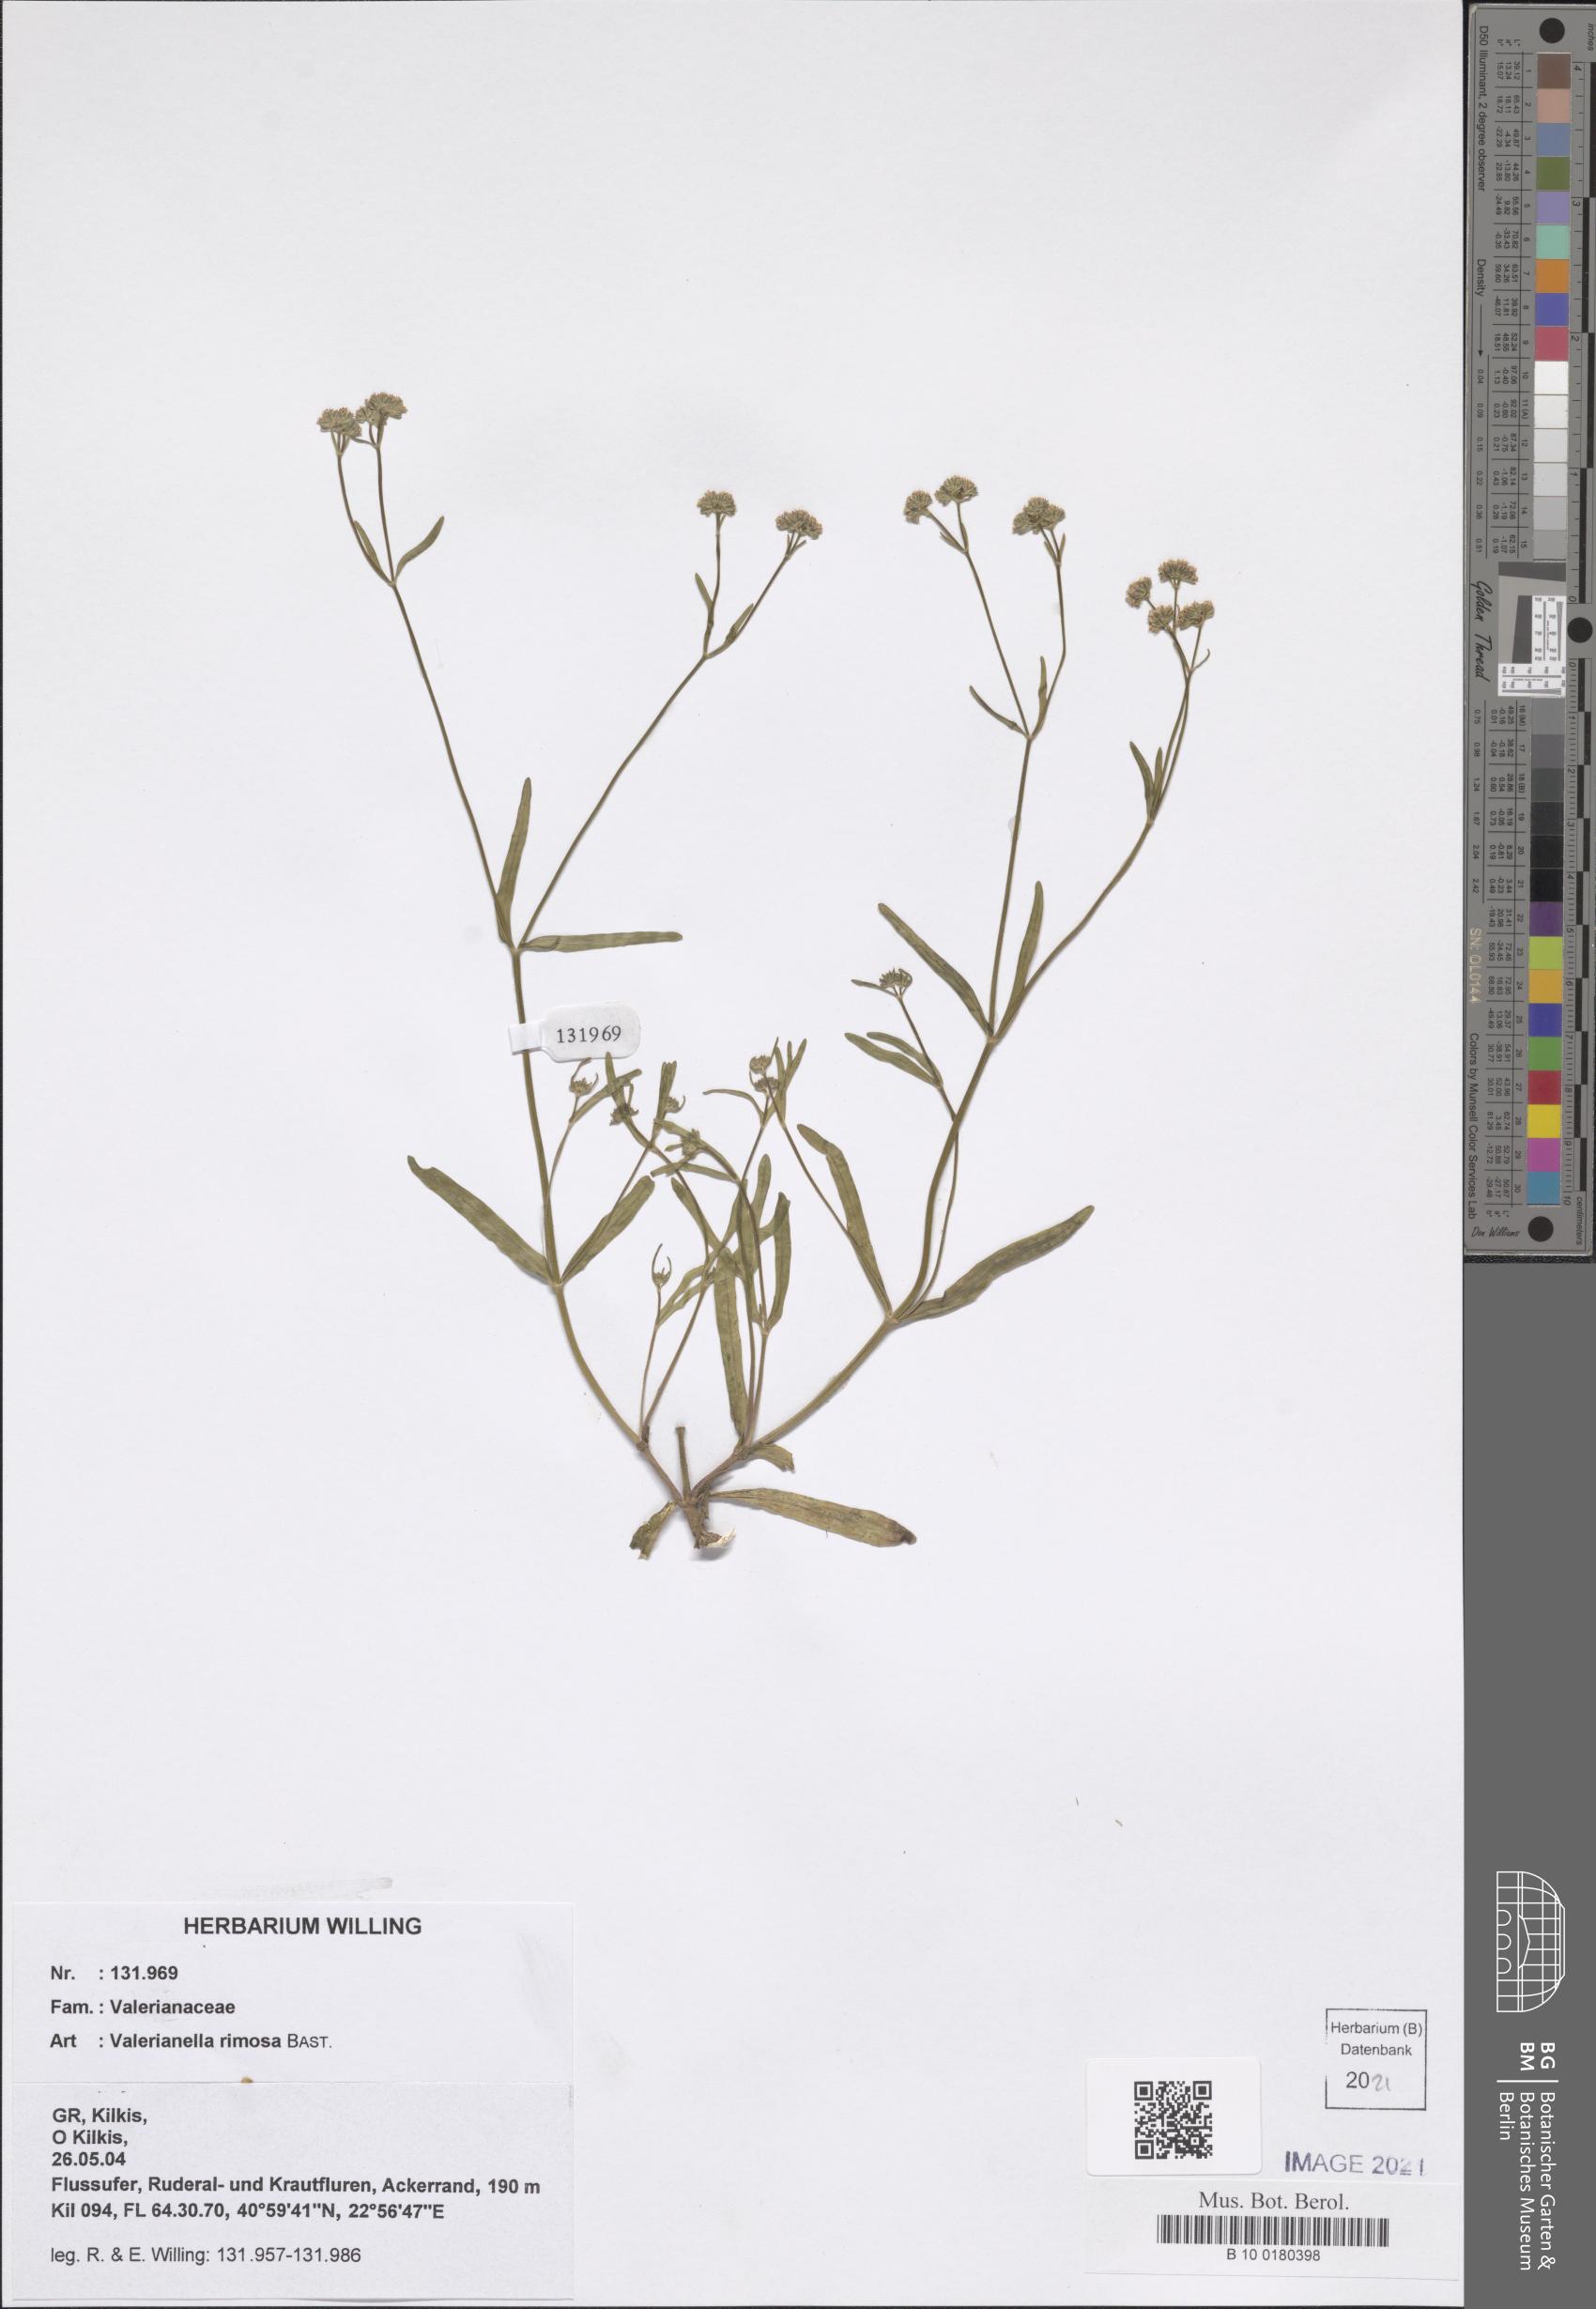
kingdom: Plantae
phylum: Tracheophyta
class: Magnoliopsida
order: Dipsacales
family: Caprifoliaceae
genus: Valerianella
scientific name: Valerianella rimosa
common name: Broad-fruited cornsalad
